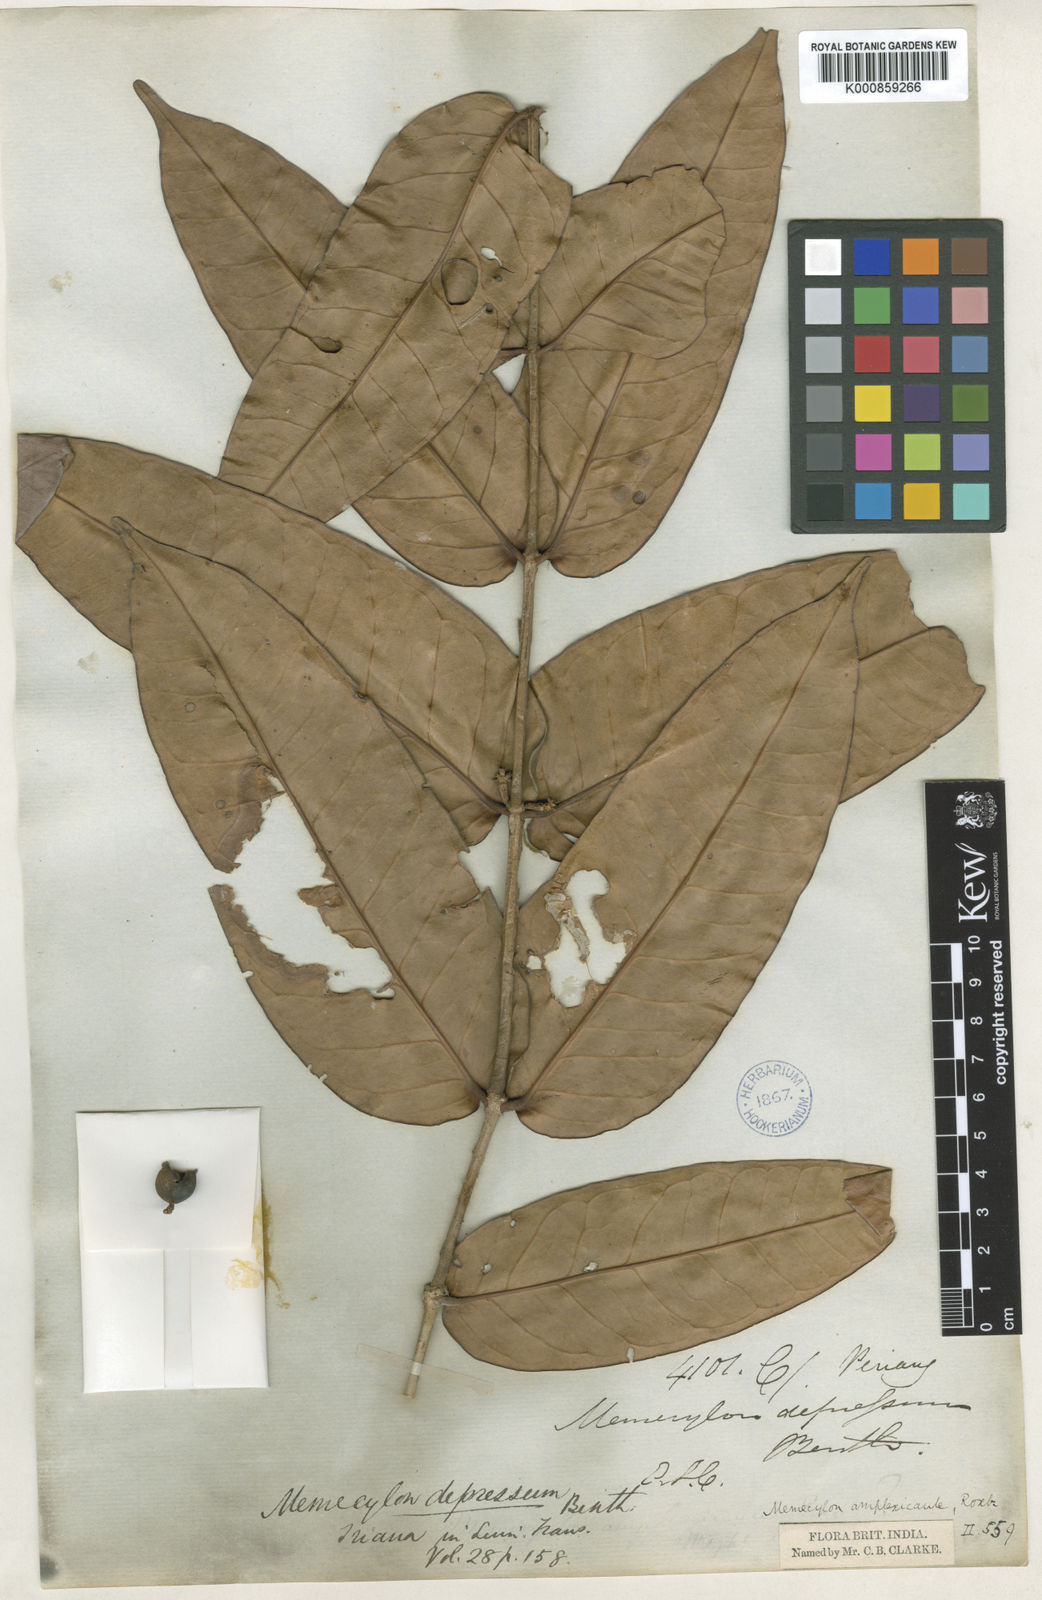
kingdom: Plantae
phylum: Tracheophyta
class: Magnoliopsida
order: Myrtales
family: Melastomataceae
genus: Memecylon
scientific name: Memecylon wallichii
